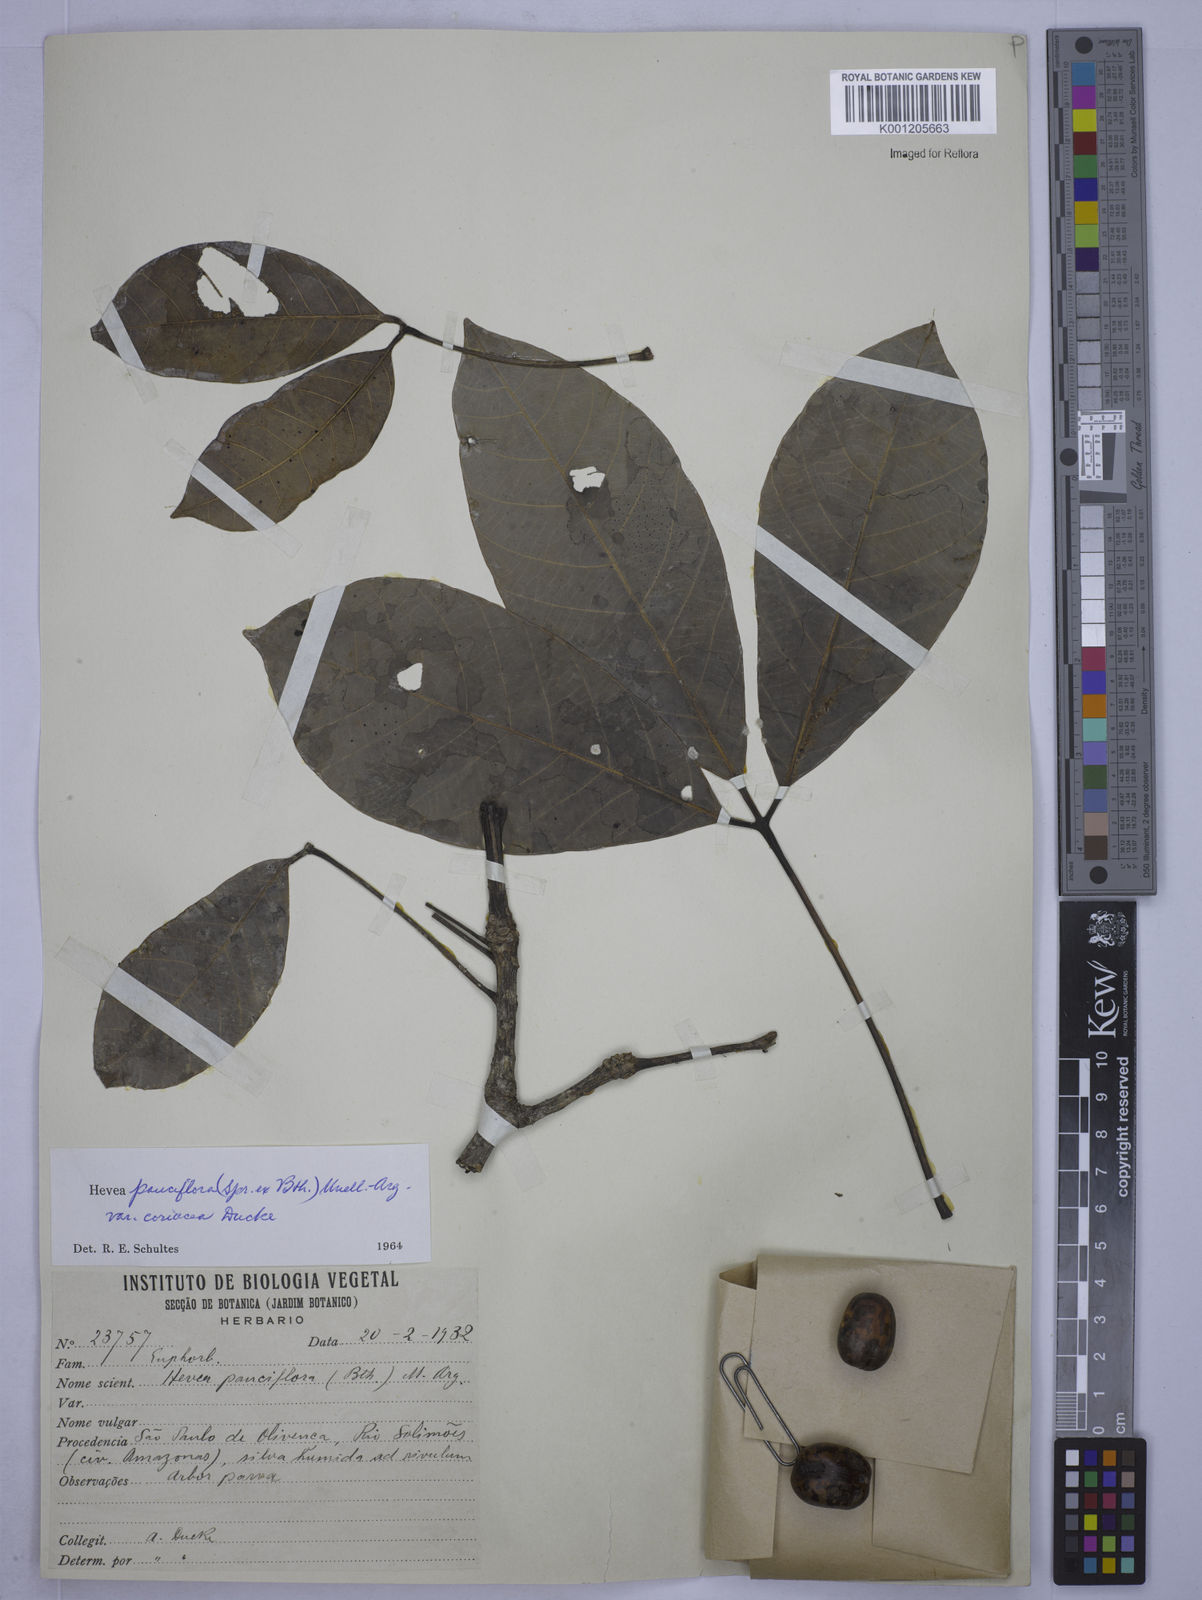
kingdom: Plantae
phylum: Tracheophyta
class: Magnoliopsida
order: Malpighiales
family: Euphorbiaceae
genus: Hevea
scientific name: Hevea pauciflora
